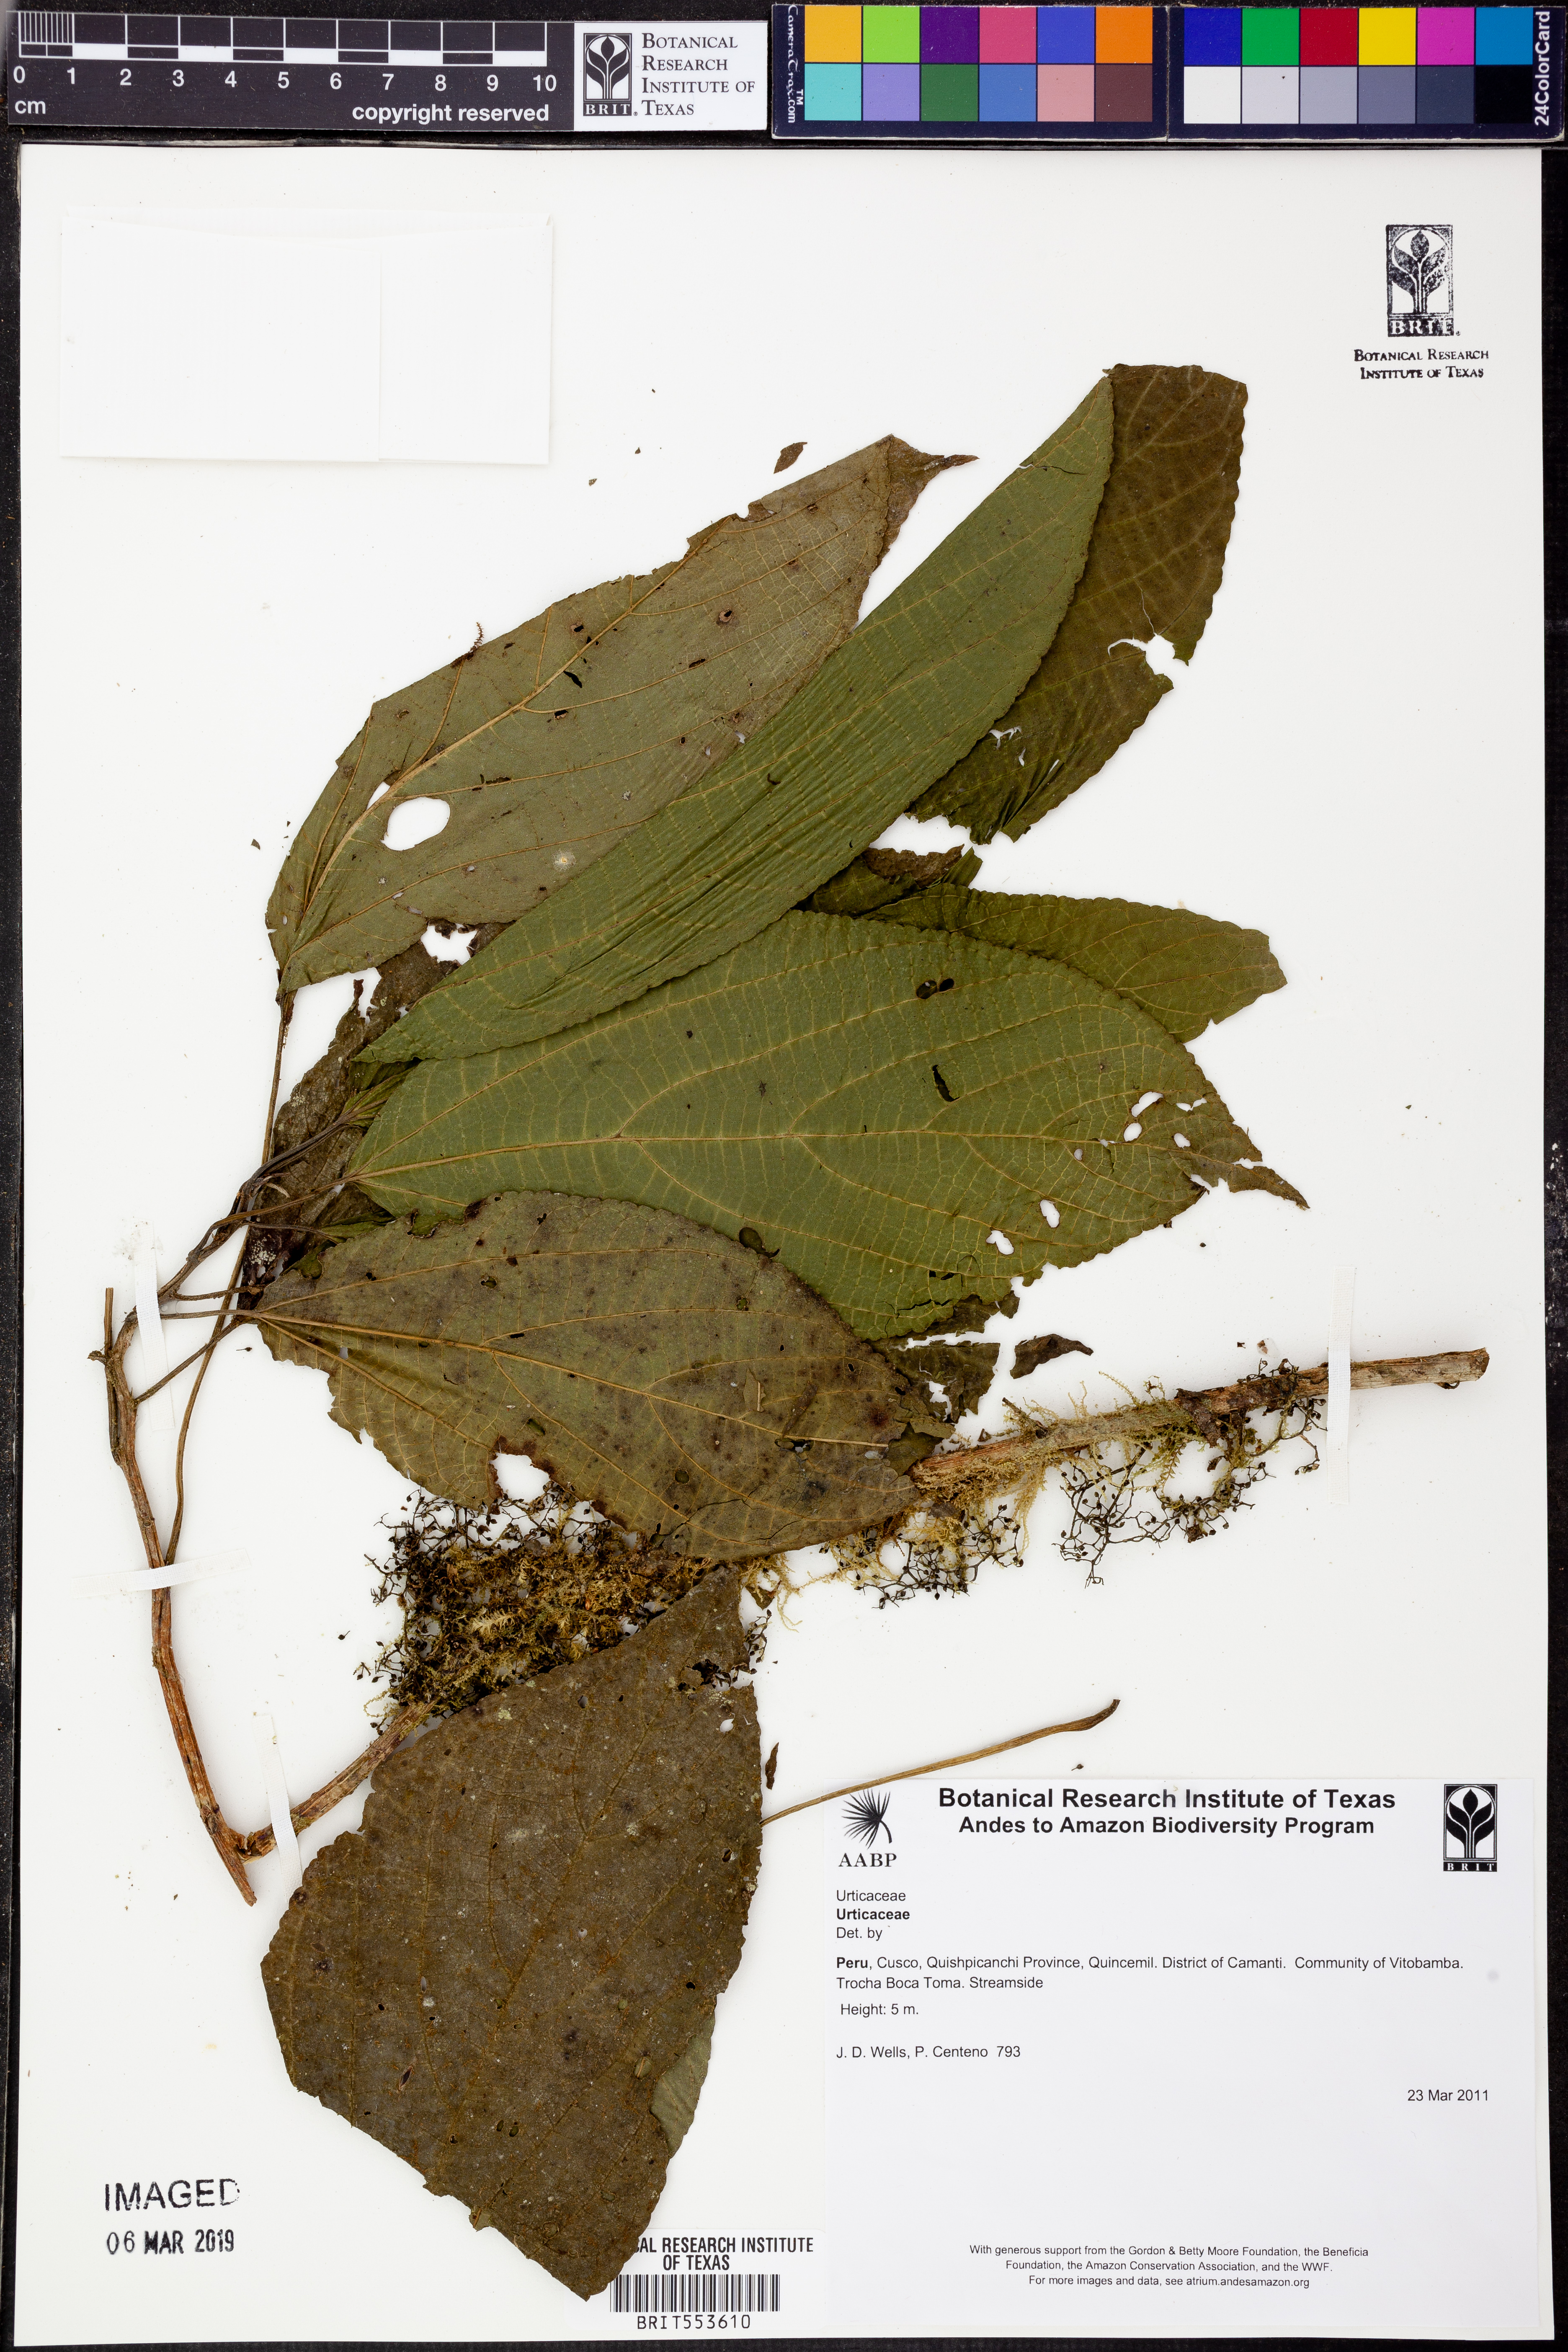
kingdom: Plantae
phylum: Tracheophyta
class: Magnoliopsida
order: Rosales
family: Urticaceae
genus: Urera
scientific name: Urera
